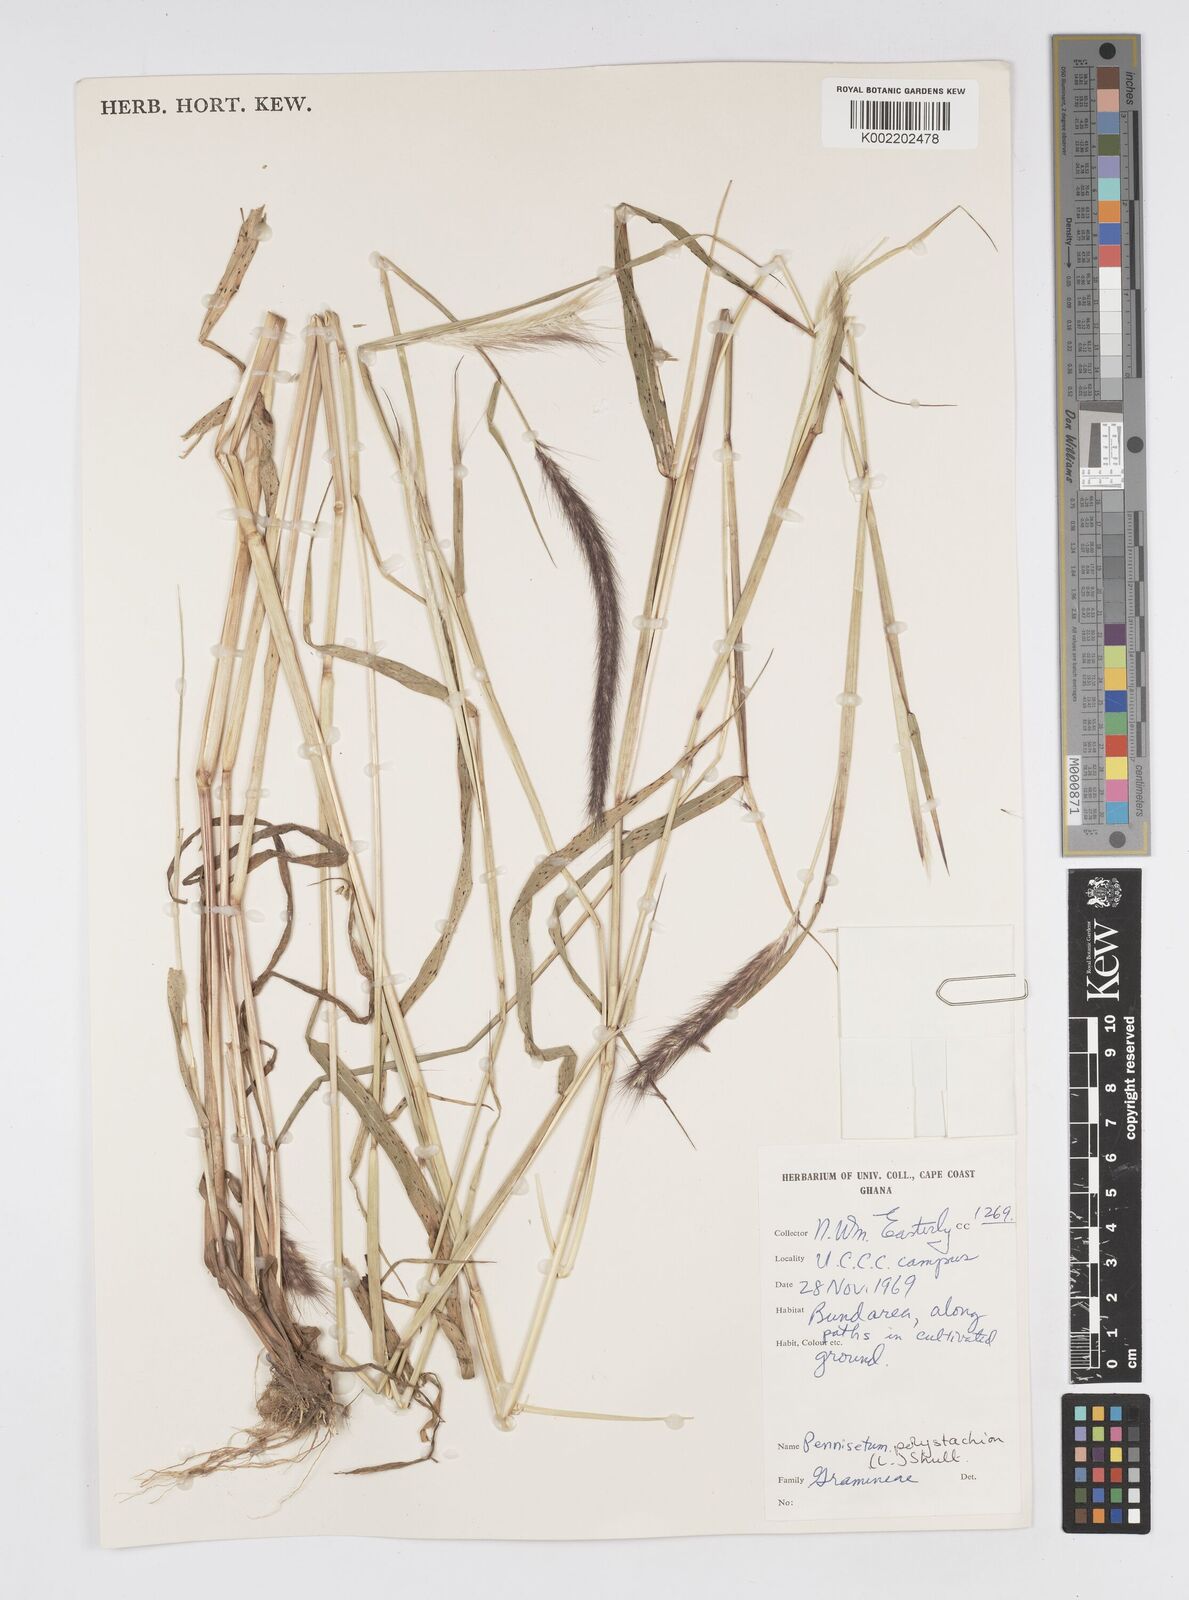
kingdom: Plantae
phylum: Tracheophyta
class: Liliopsida
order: Poales
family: Poaceae
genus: Setaria
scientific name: Setaria parviflora
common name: Knotroot bristle-grass
